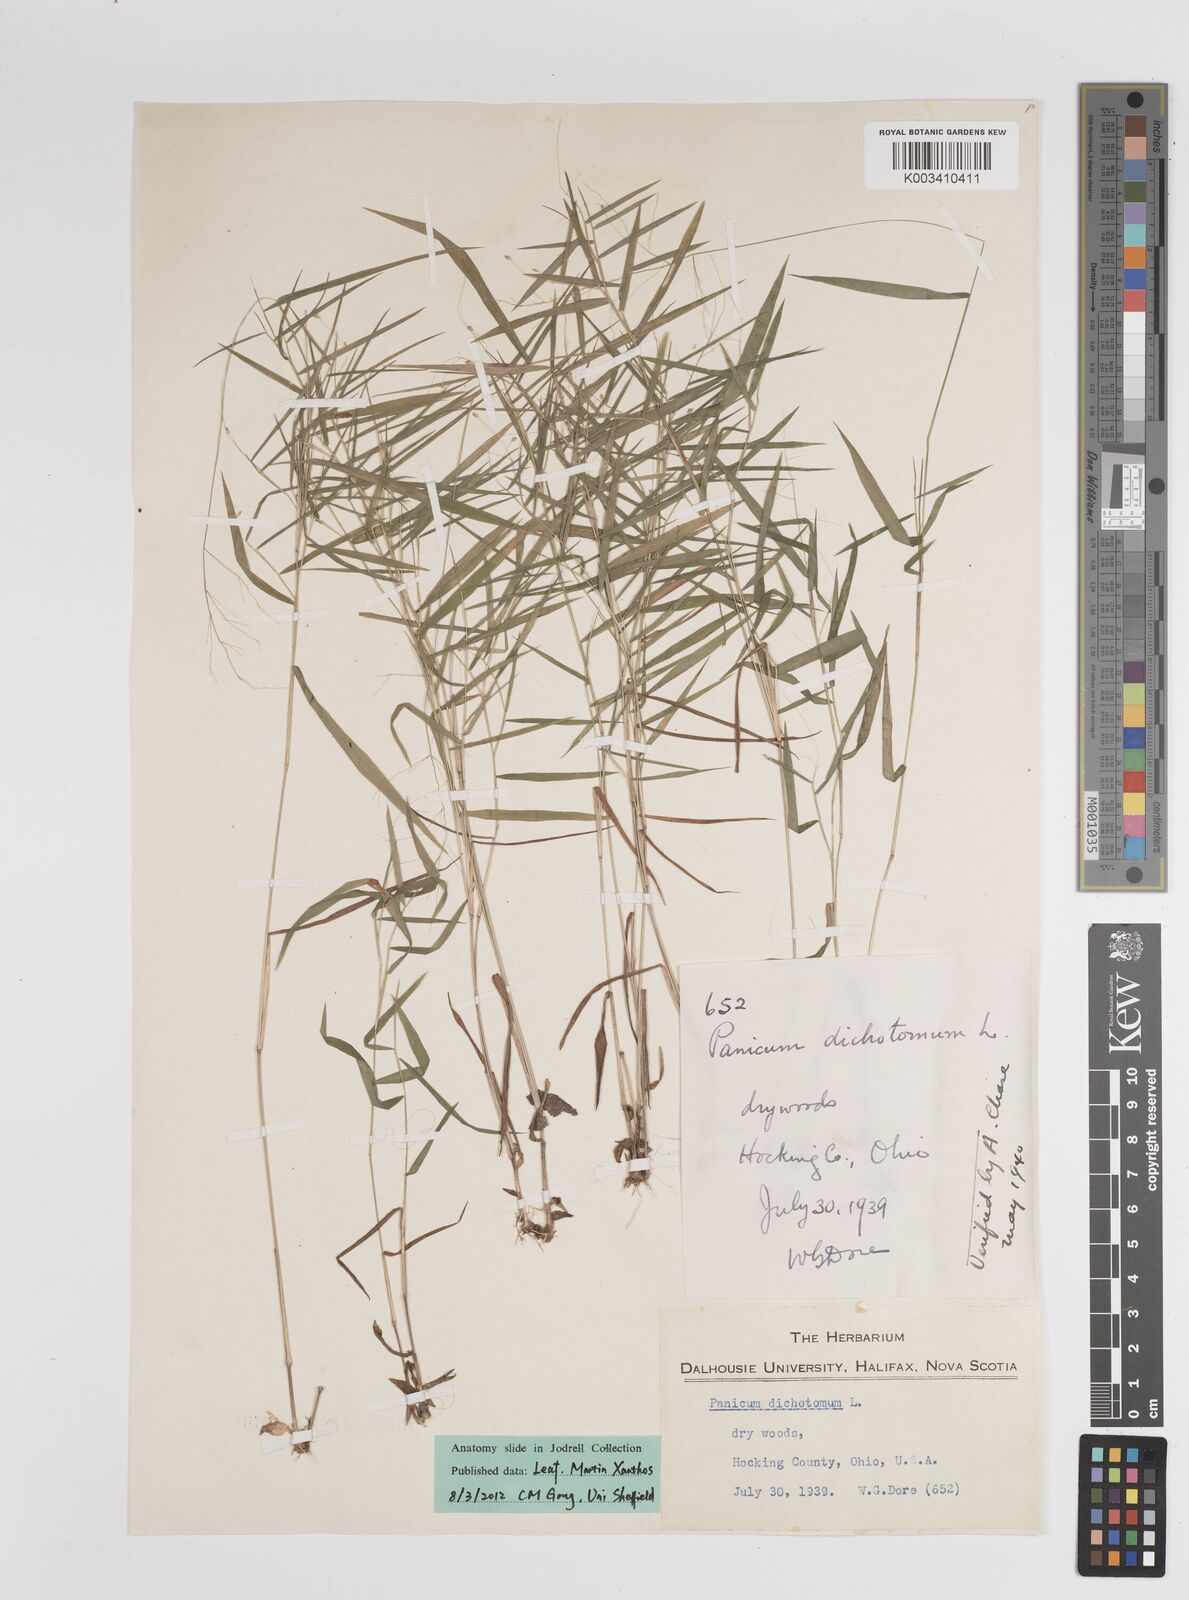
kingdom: Plantae
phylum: Tracheophyta
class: Liliopsida
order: Poales
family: Poaceae
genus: Dichanthelium
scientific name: Dichanthelium dichotomum
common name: Cypress panicgrass
